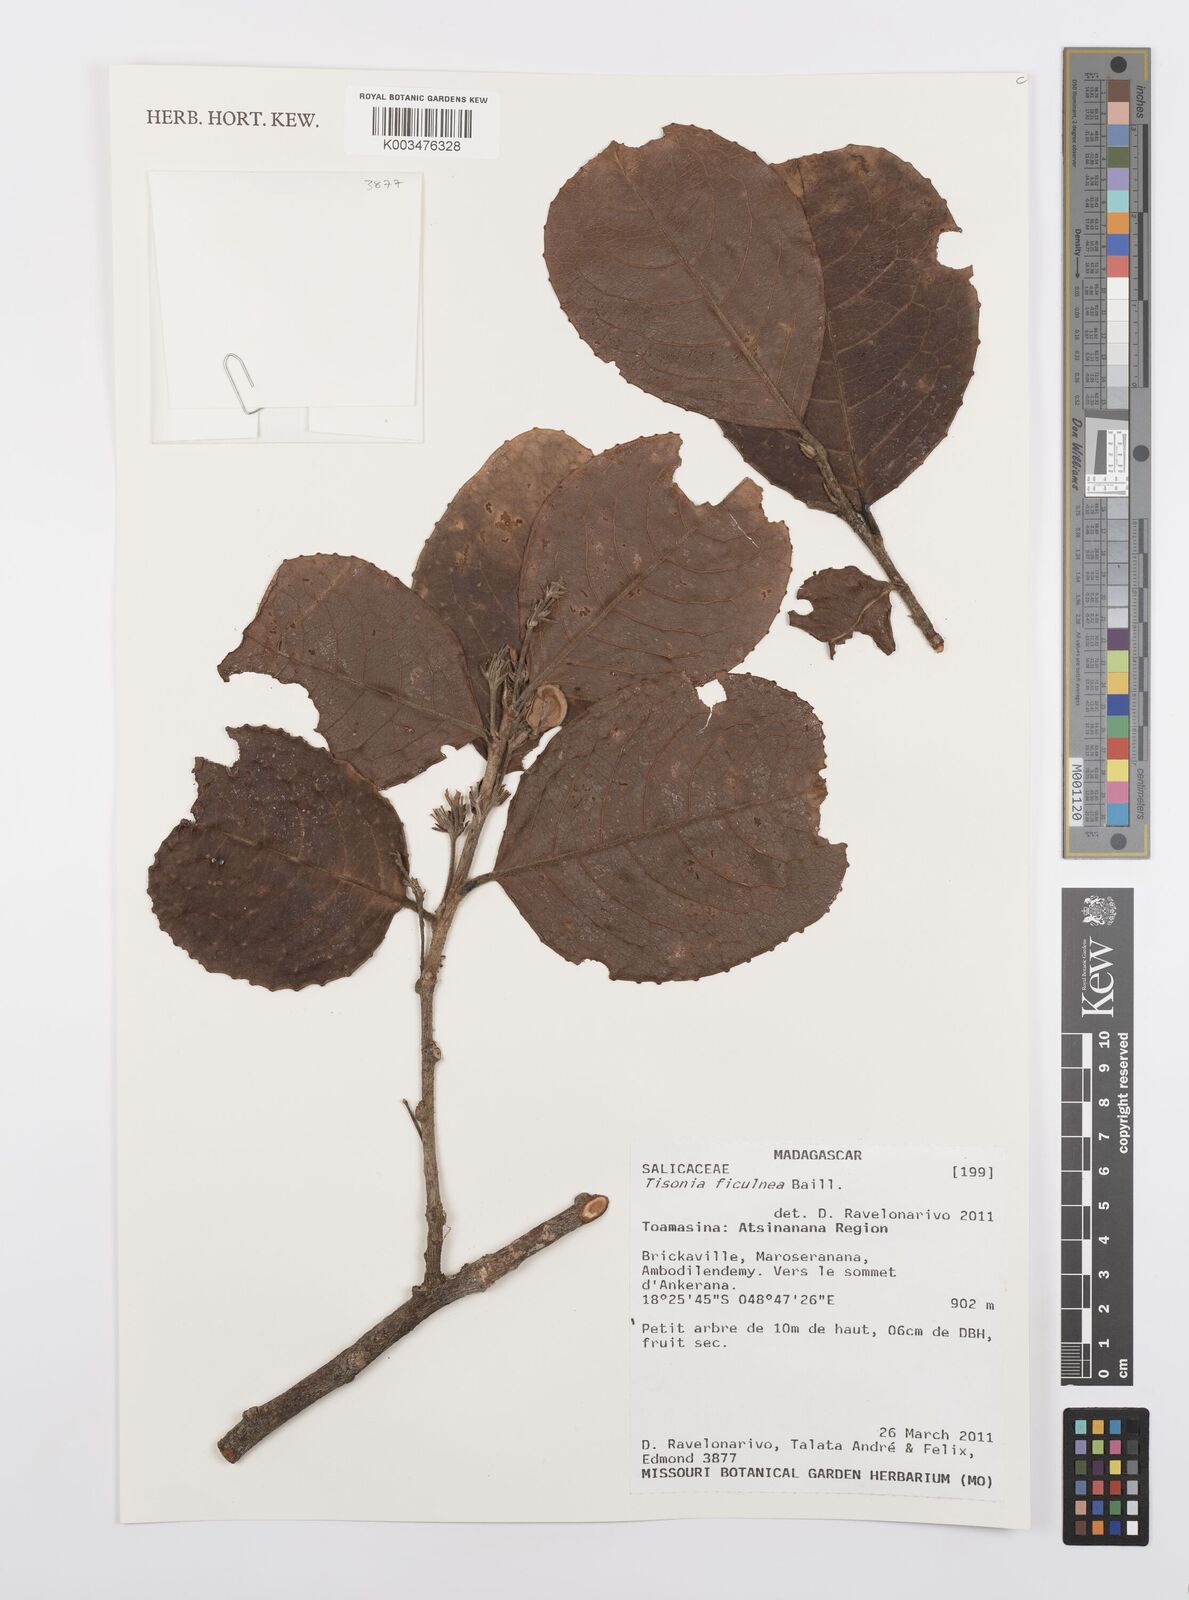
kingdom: Plantae
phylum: Tracheophyta
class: Magnoliopsida
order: Malpighiales
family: Salicaceae
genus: Tisonia
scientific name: Tisonia ficulnea
